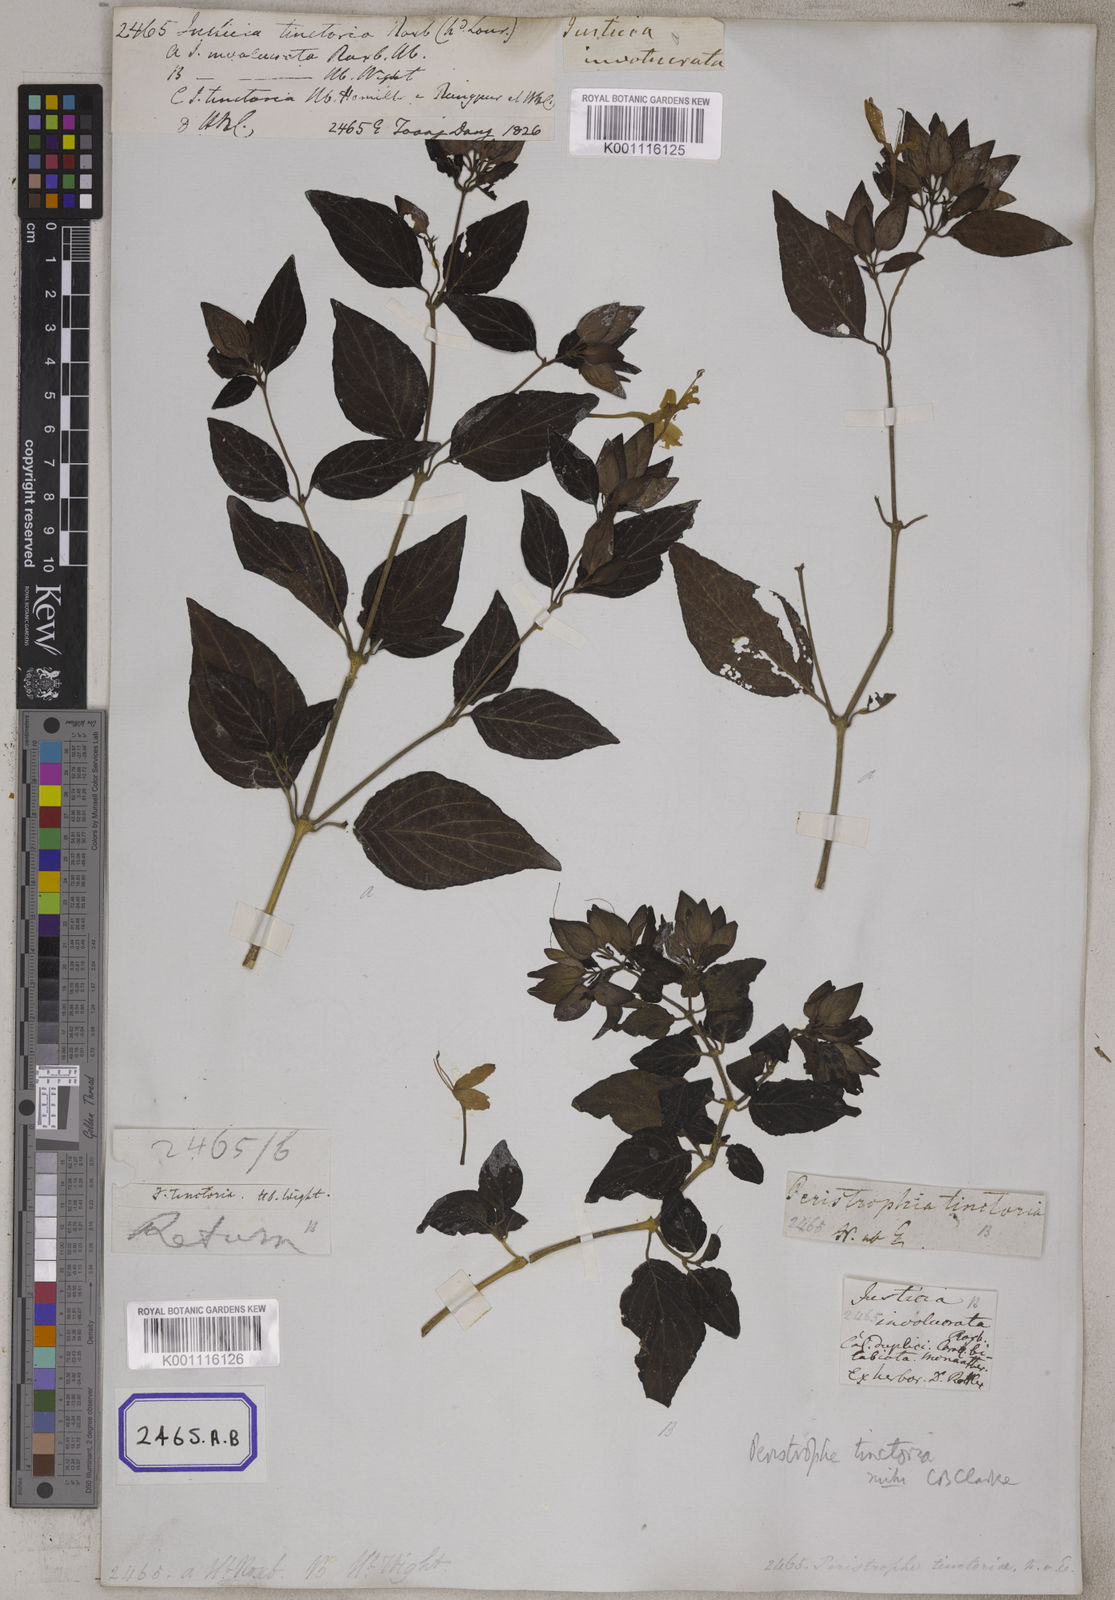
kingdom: Plantae
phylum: Tracheophyta
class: Magnoliopsida
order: Lamiales
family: Acanthaceae
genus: Dicliptera
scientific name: Dicliptera tinctoria
